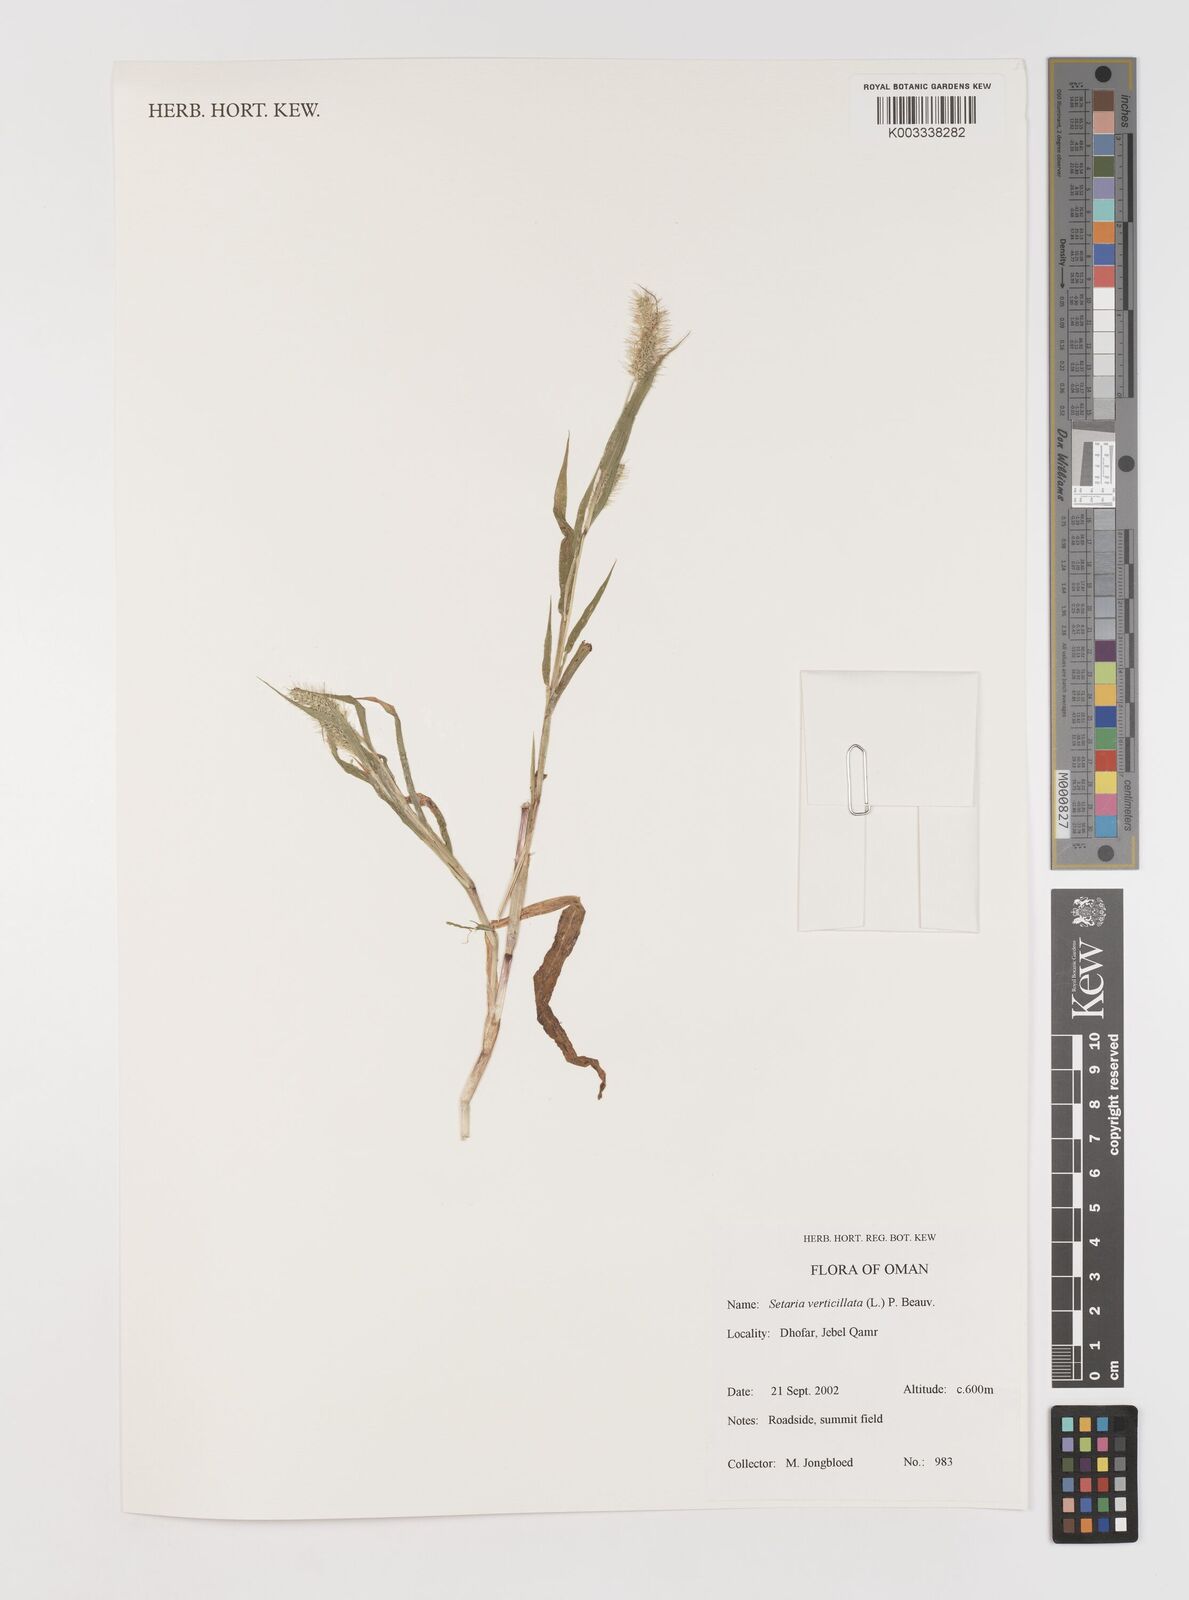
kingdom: Plantae
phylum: Tracheophyta
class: Liliopsida
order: Poales
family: Poaceae
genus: Setaria
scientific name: Setaria verticillata
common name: Hooked bristlegrass
